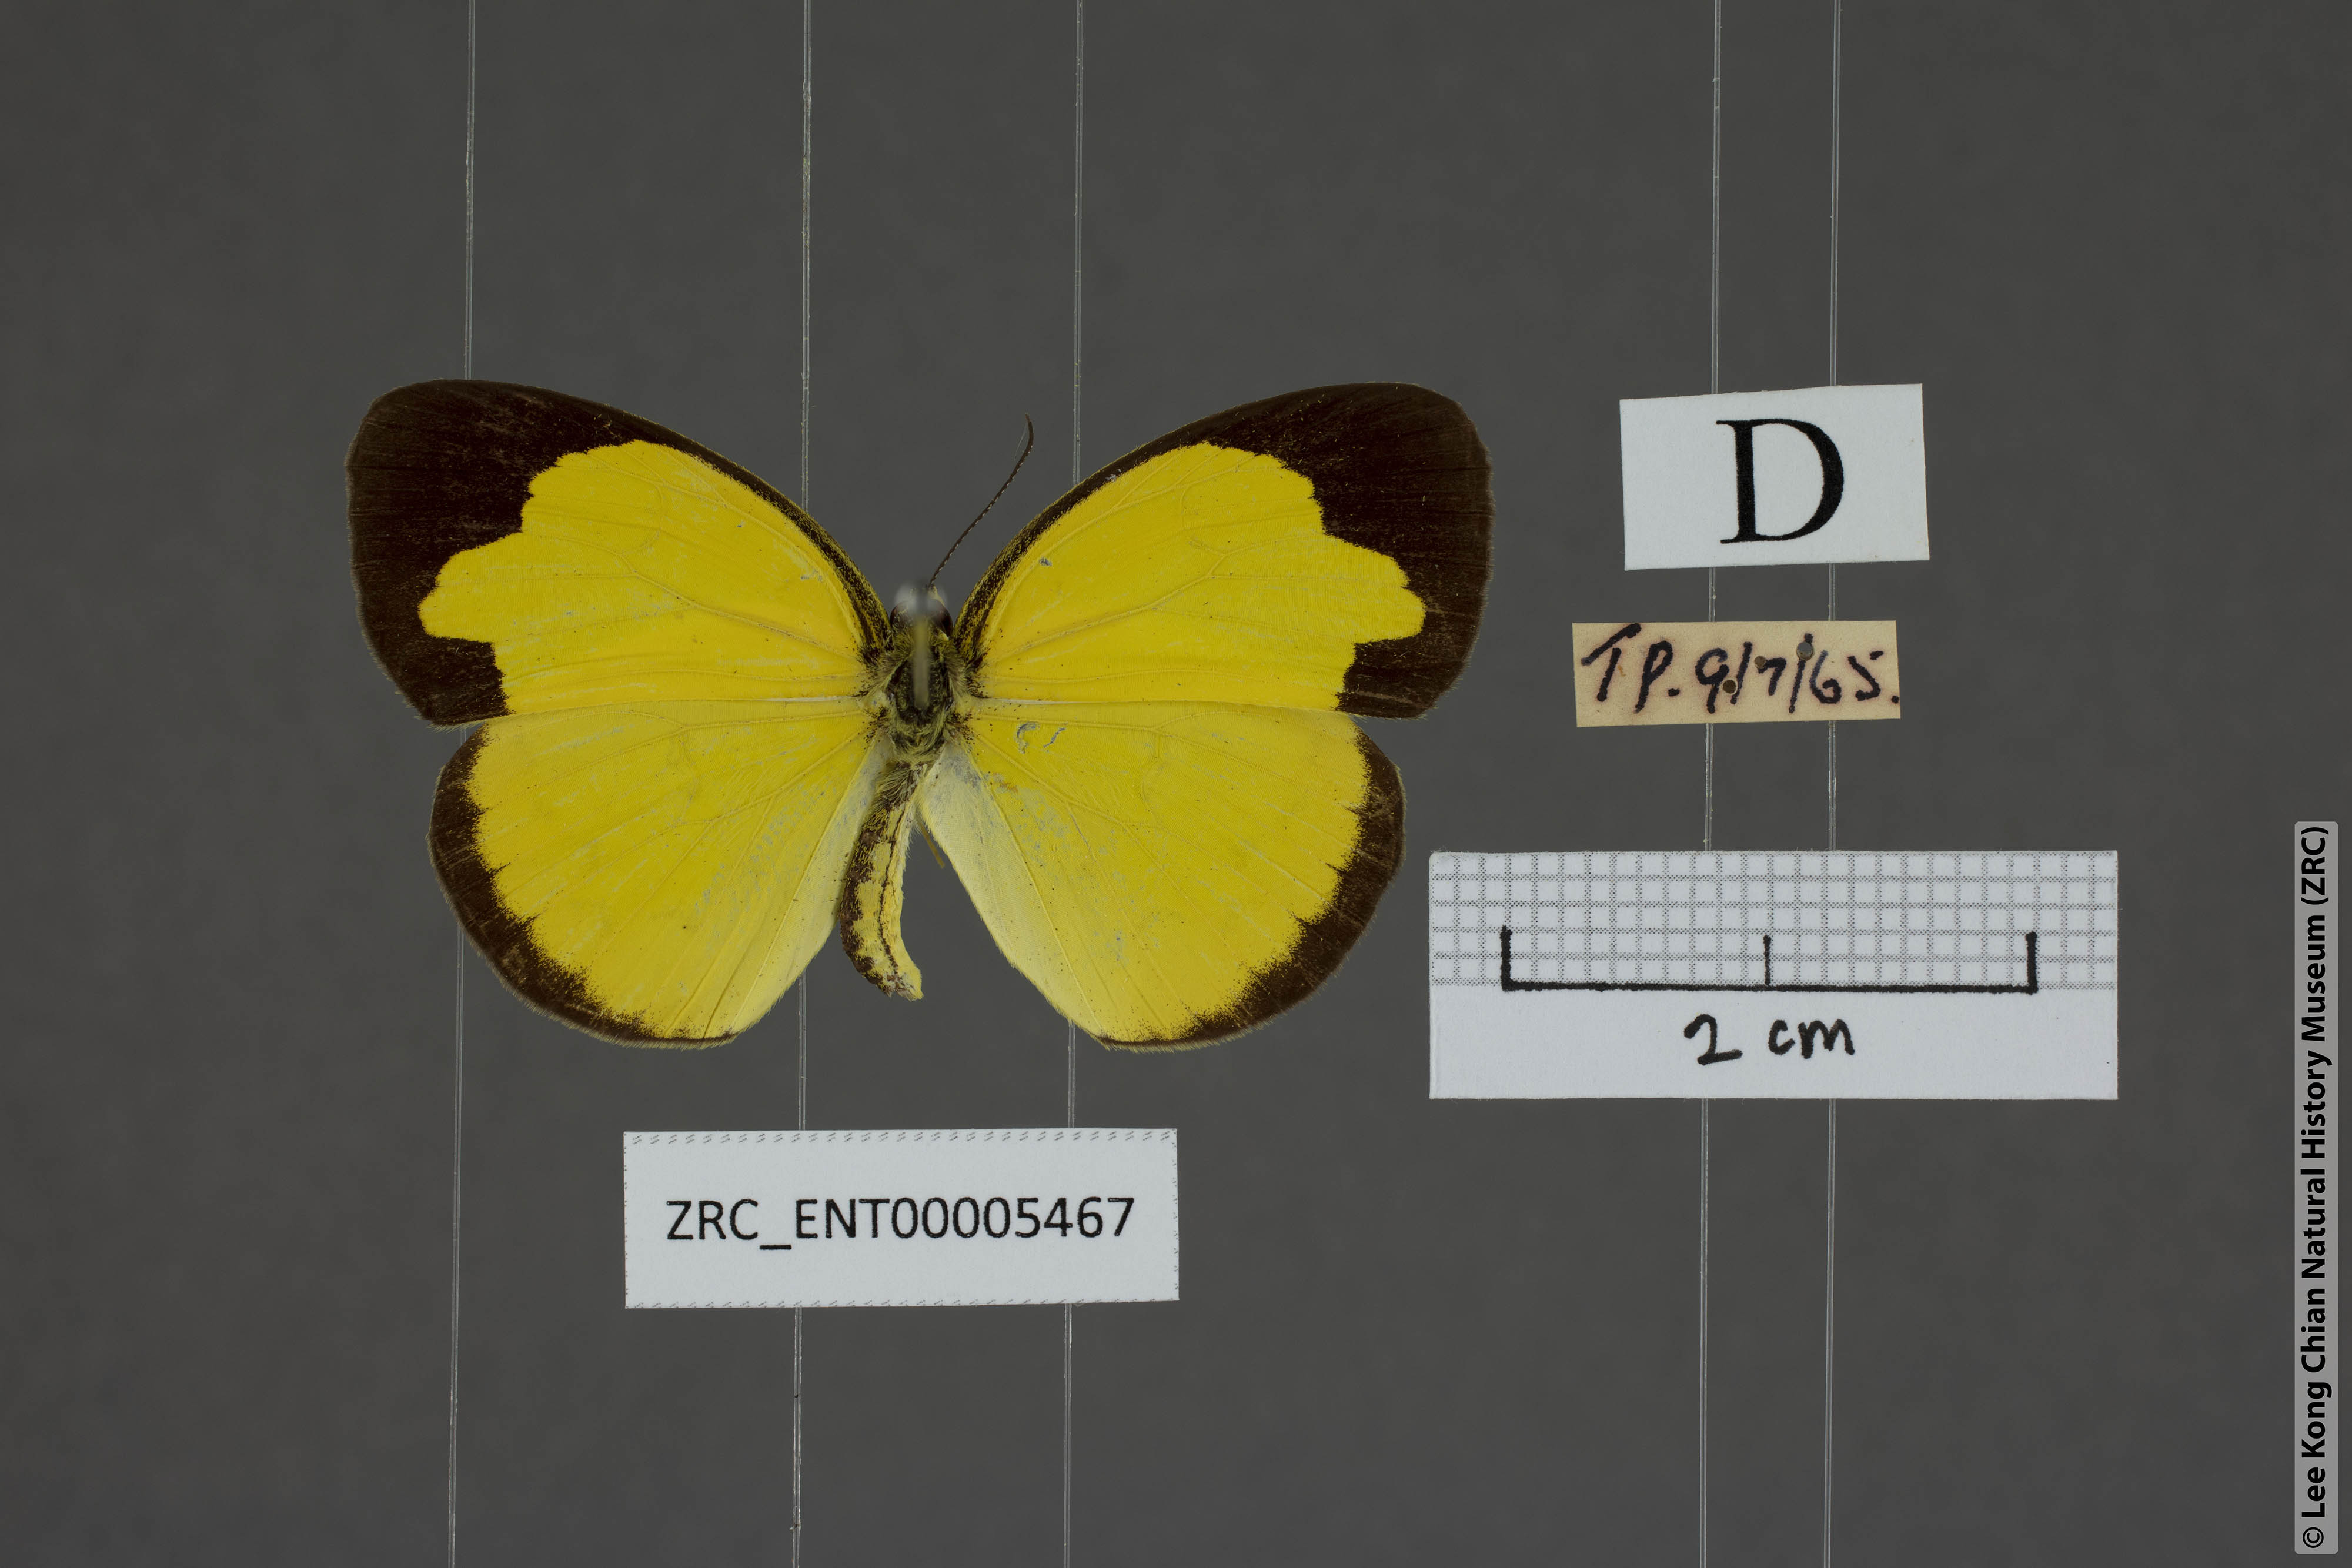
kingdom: Animalia
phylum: Arthropoda
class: Insecta
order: Lepidoptera
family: Pieridae
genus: Eurema
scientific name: Eurema sari
